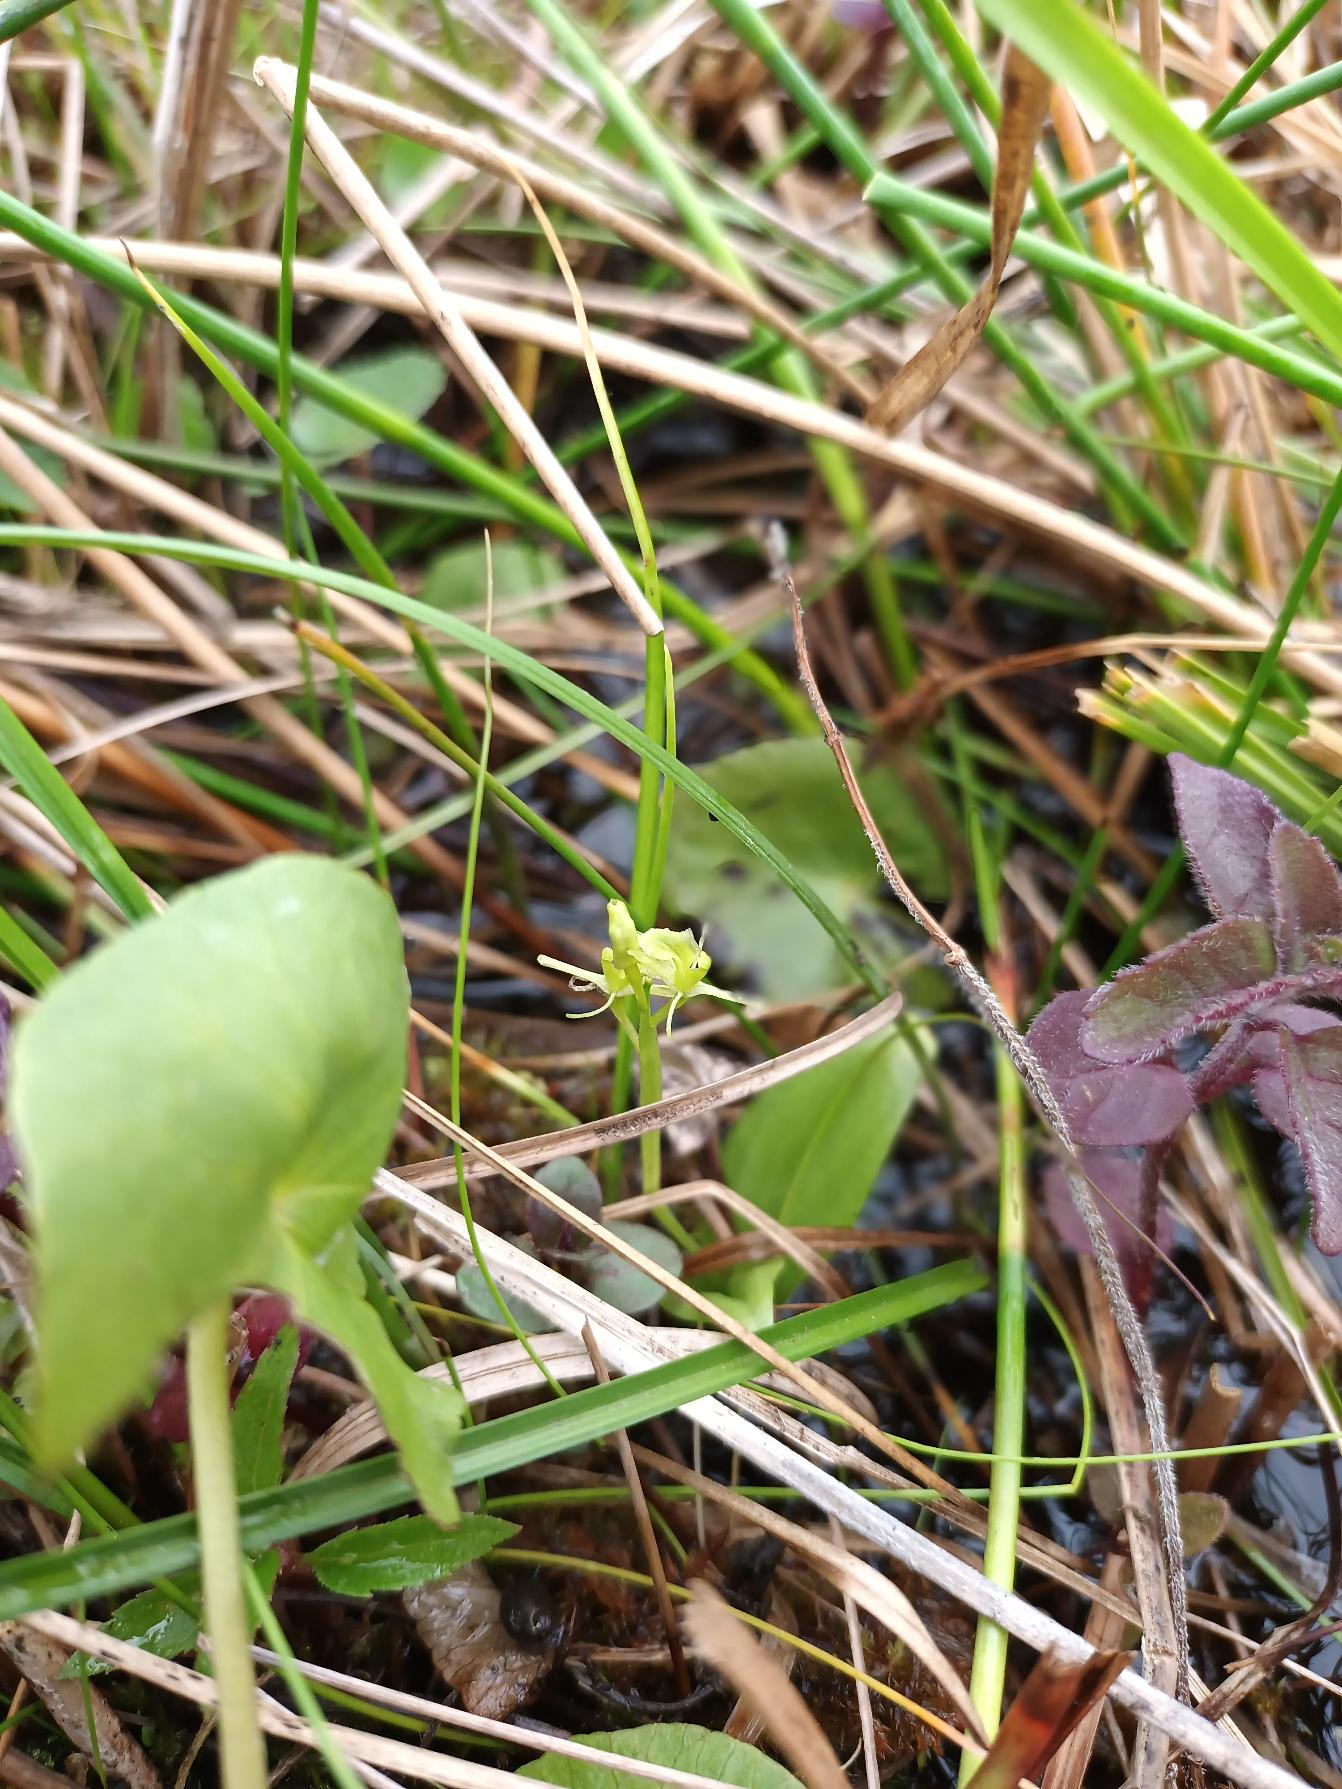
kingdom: Animalia
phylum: Arthropoda
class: Insecta
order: Coleoptera
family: Curculionidae
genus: Liparis
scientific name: Liparis loeselii
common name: Mygblomst
